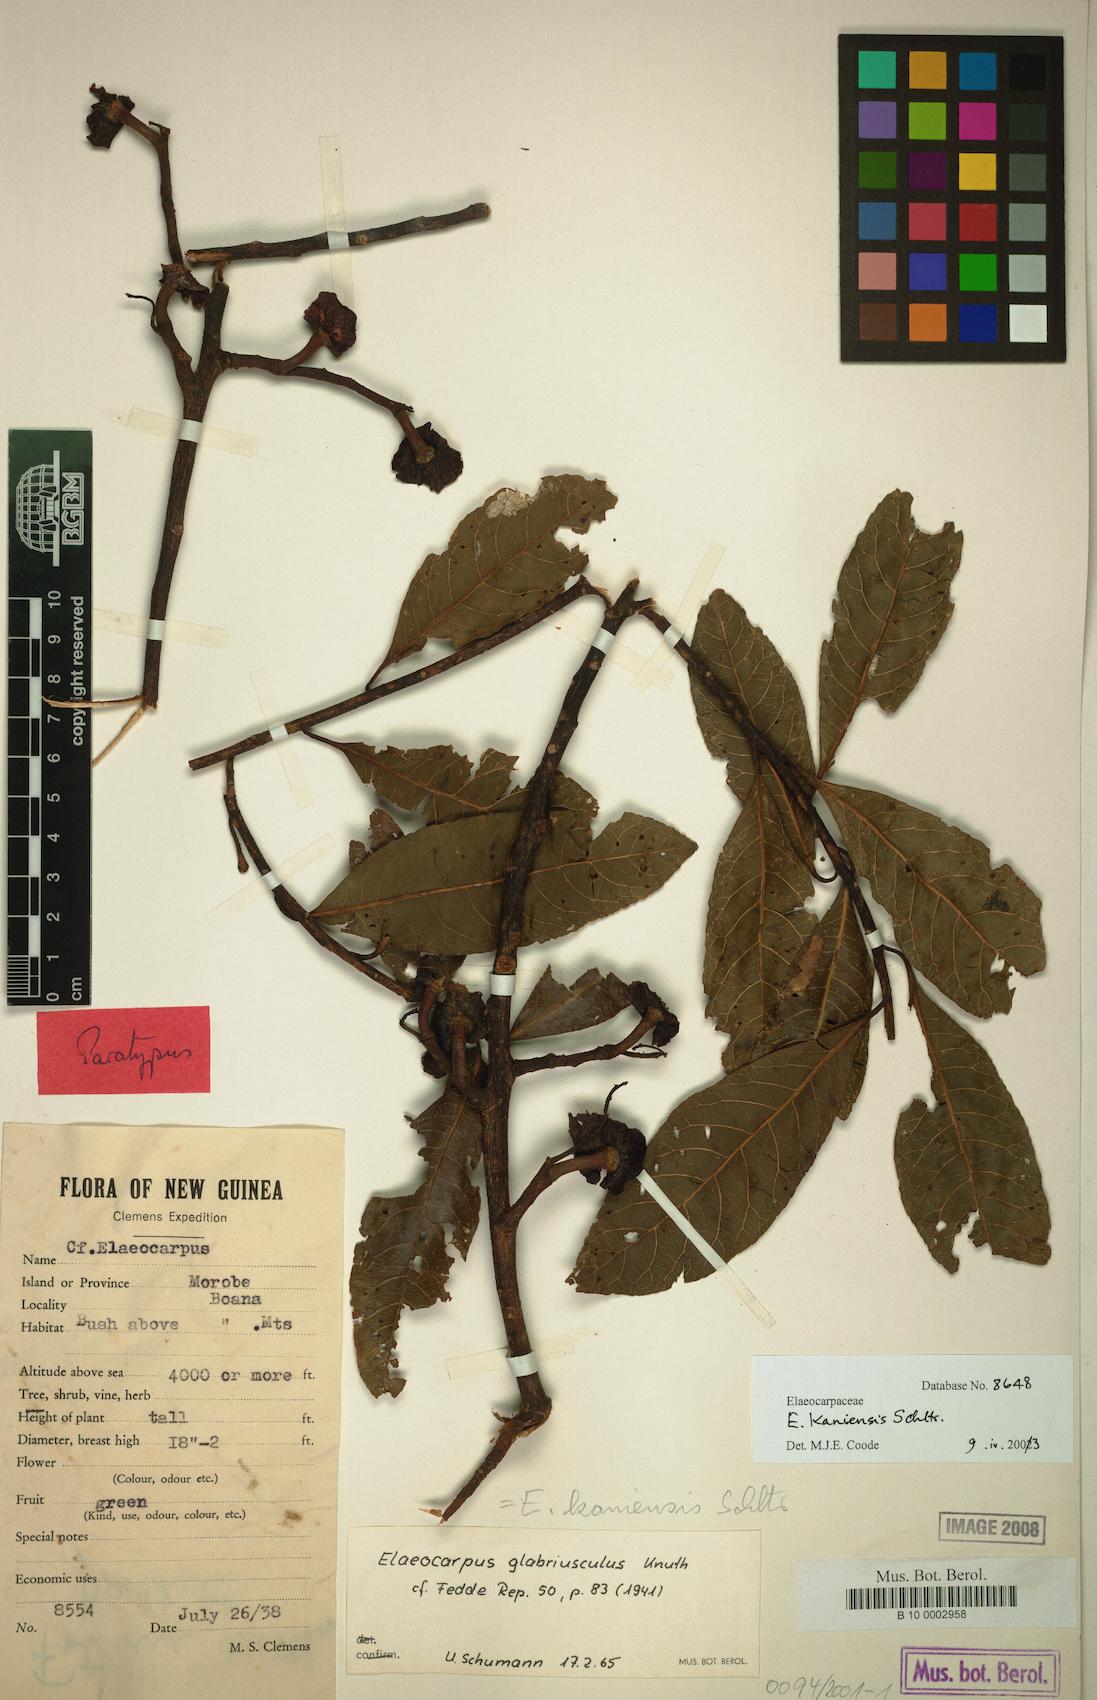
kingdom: Plantae
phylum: Tracheophyta
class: Magnoliopsida
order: Oxalidales
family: Elaeocarpaceae
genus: Elaeocarpus
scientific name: Elaeocarpus kaniensis
